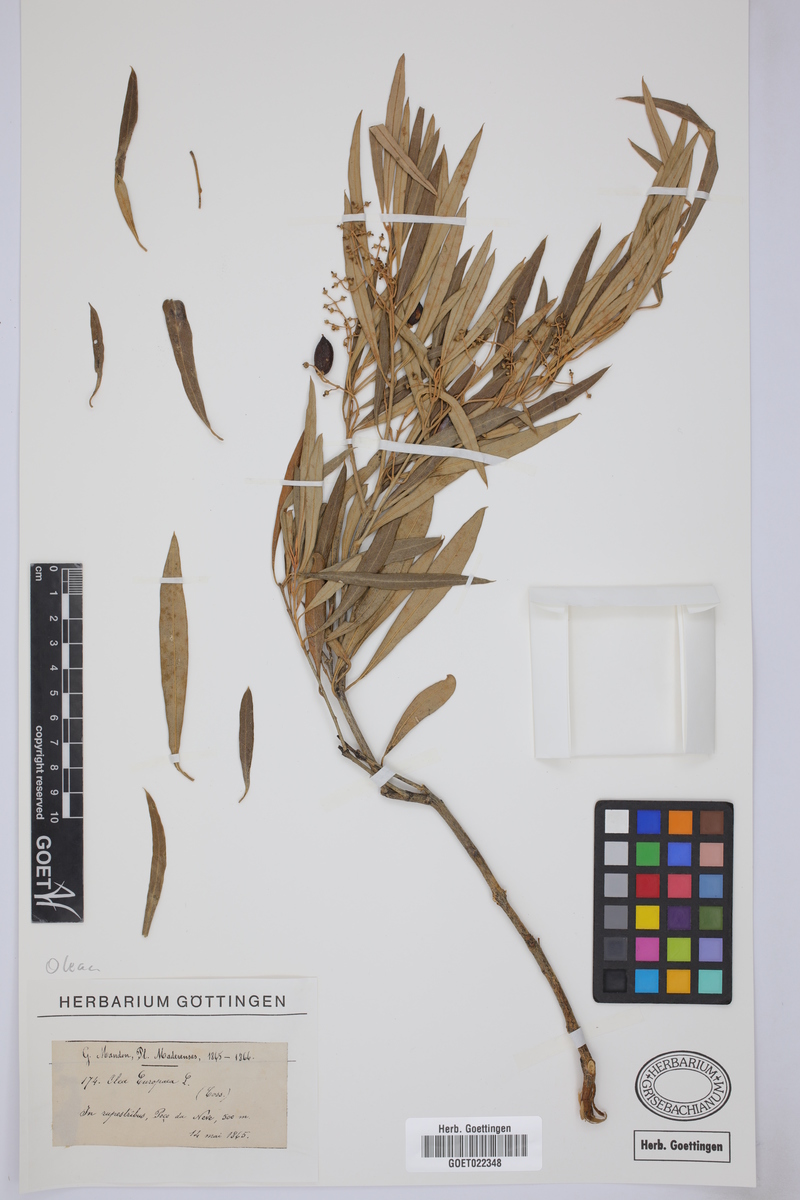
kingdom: Plantae
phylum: Tracheophyta
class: Magnoliopsida
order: Lamiales
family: Oleaceae
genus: Olea
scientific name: Olea europaea
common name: Olive
